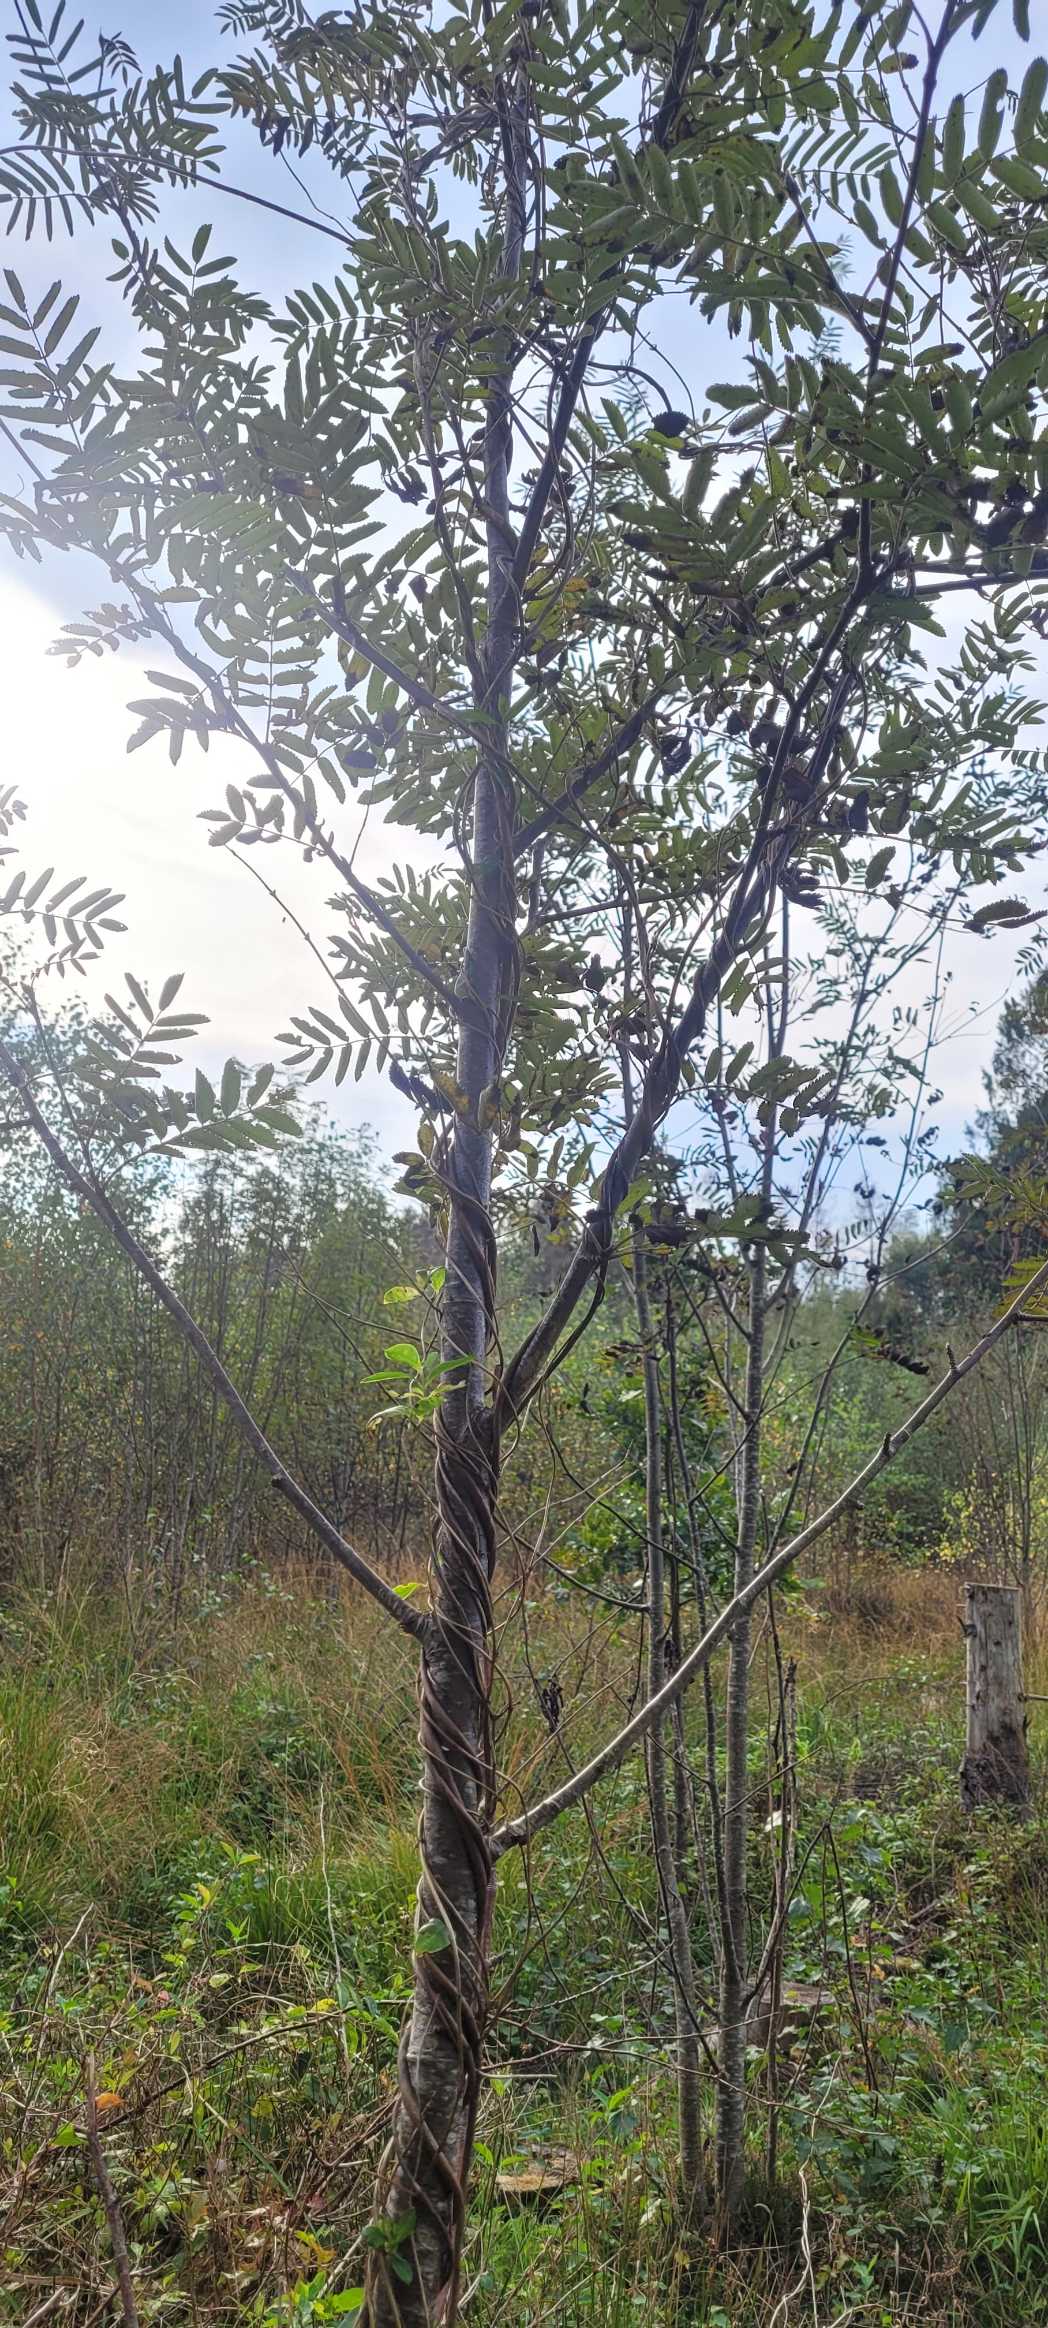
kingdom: Plantae
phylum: Tracheophyta
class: Magnoliopsida
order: Dipsacales
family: Caprifoliaceae
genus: Lonicera
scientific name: Lonicera periclymenum
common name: Almindelig gedeblad
